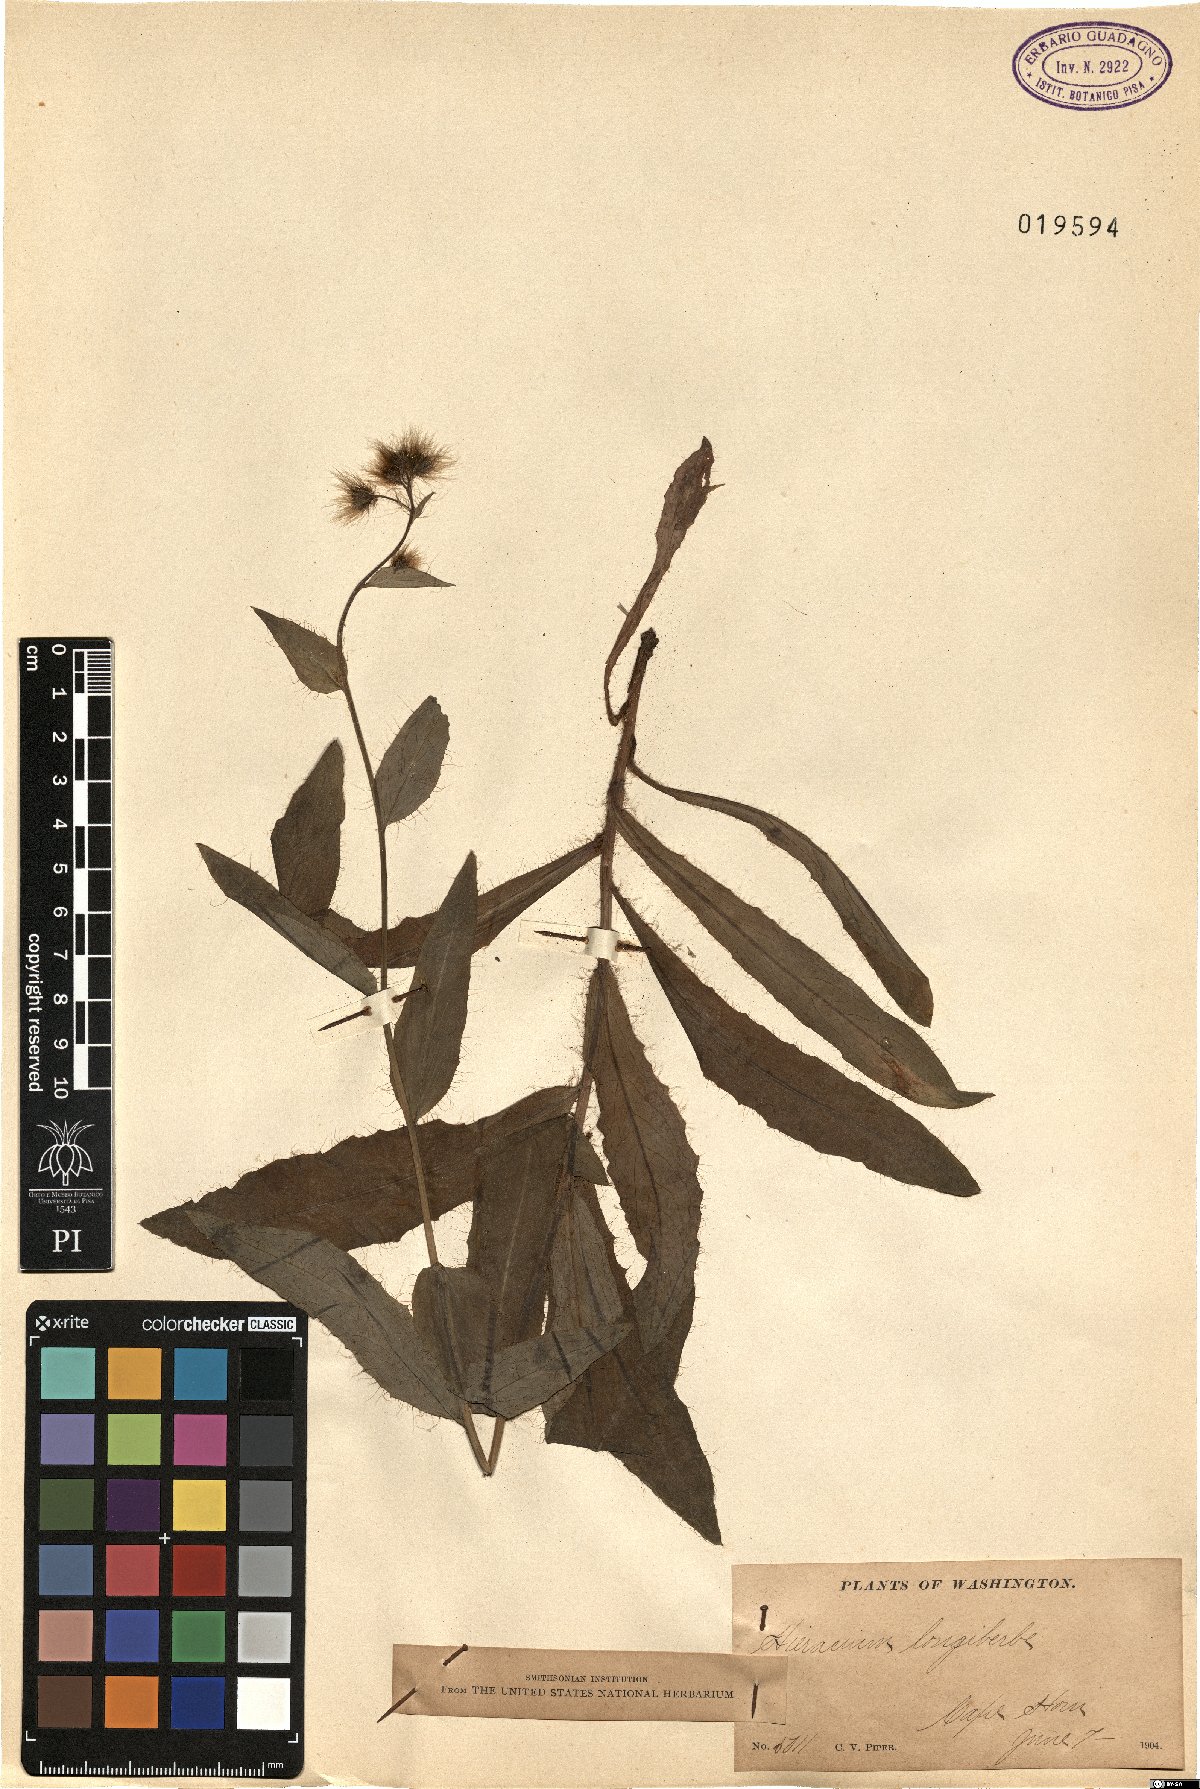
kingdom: Plantae
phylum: Tracheophyta
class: Magnoliopsida
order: Asterales
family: Asteraceae
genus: Hieracium
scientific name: Hieracium longiberbe
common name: Long-bearded hawkweed
